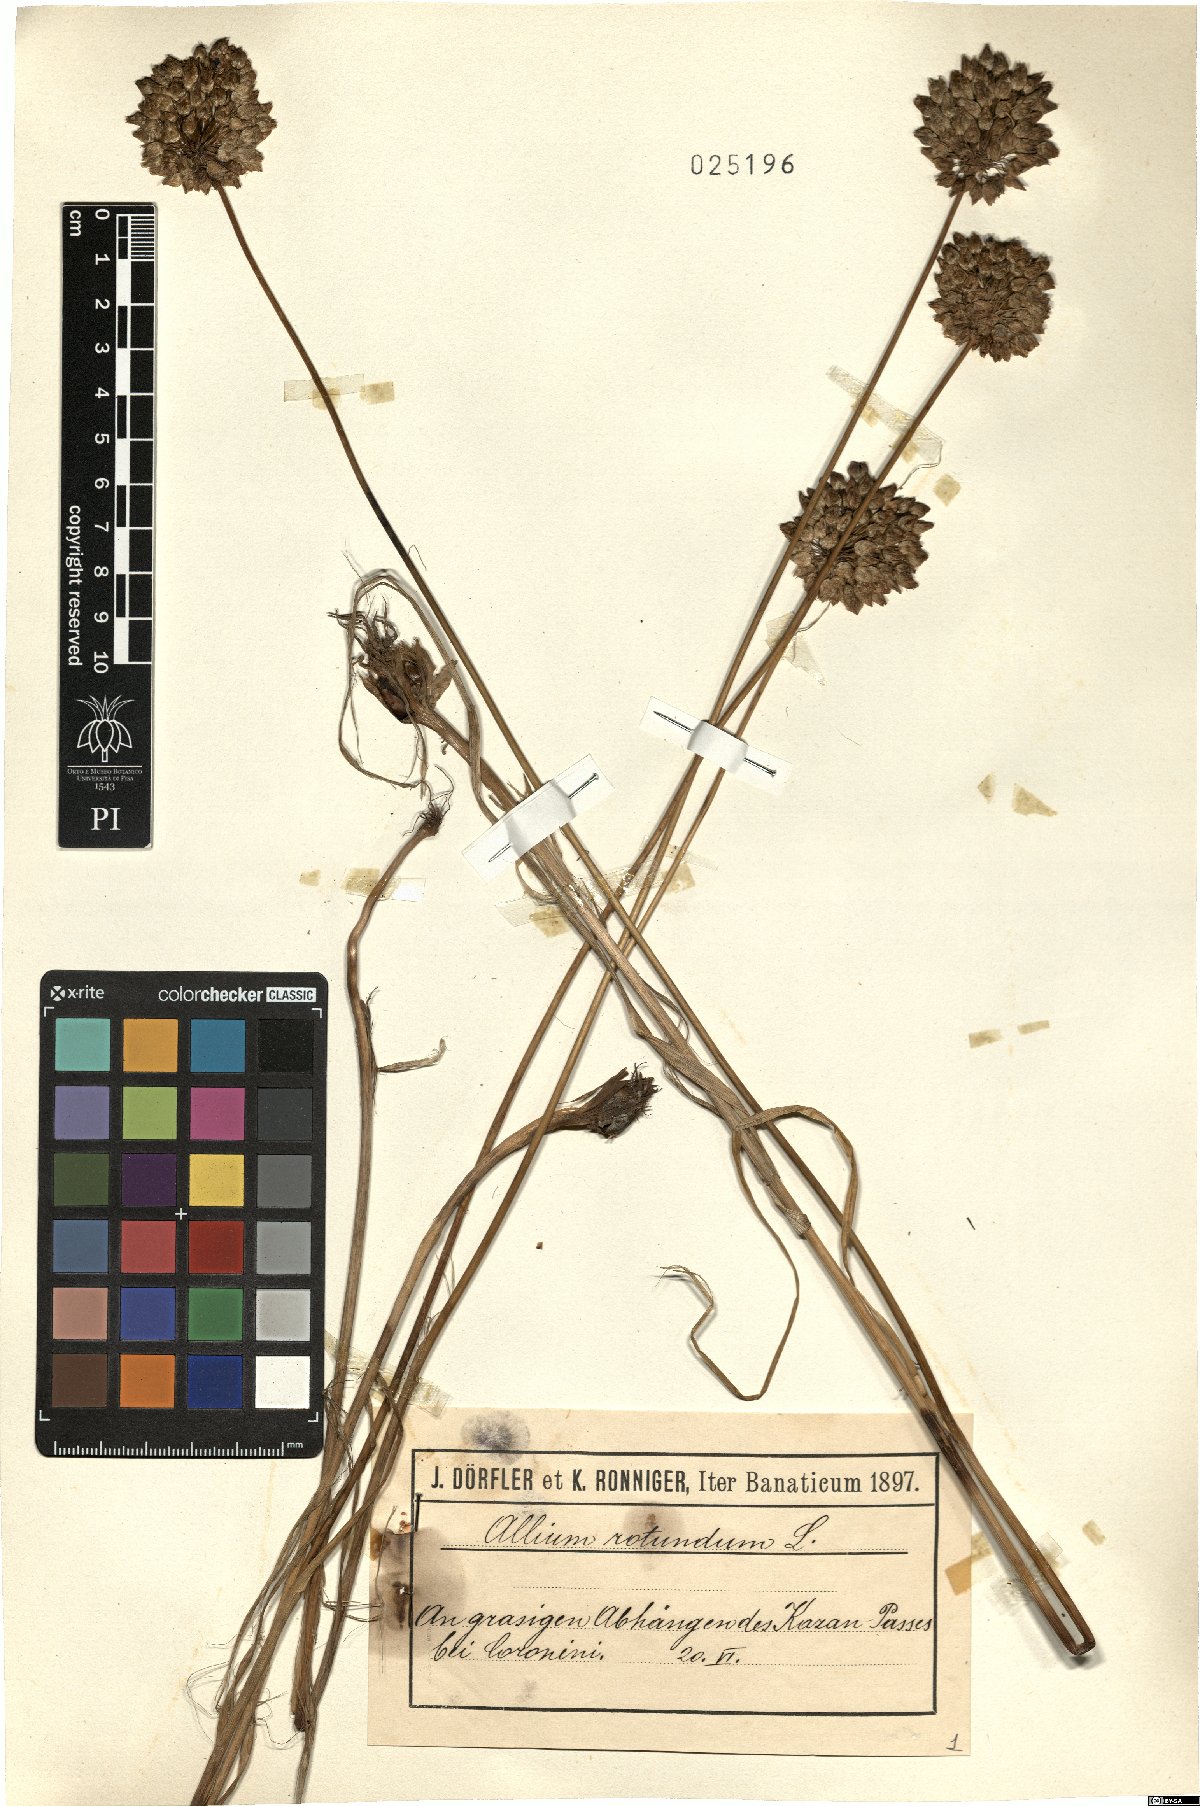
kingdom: Plantae
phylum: Tracheophyta
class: Liliopsida
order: Asparagales
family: Amaryllidaceae
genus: Allium
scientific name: Allium rotundum
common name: Sand leek
